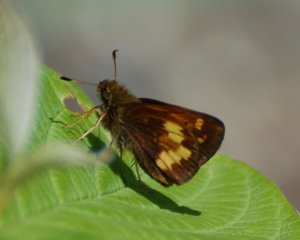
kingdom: Animalia
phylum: Arthropoda
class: Insecta
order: Lepidoptera
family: Hesperiidae
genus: Lon
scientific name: Lon hobomok
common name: Hobomok Skipper
